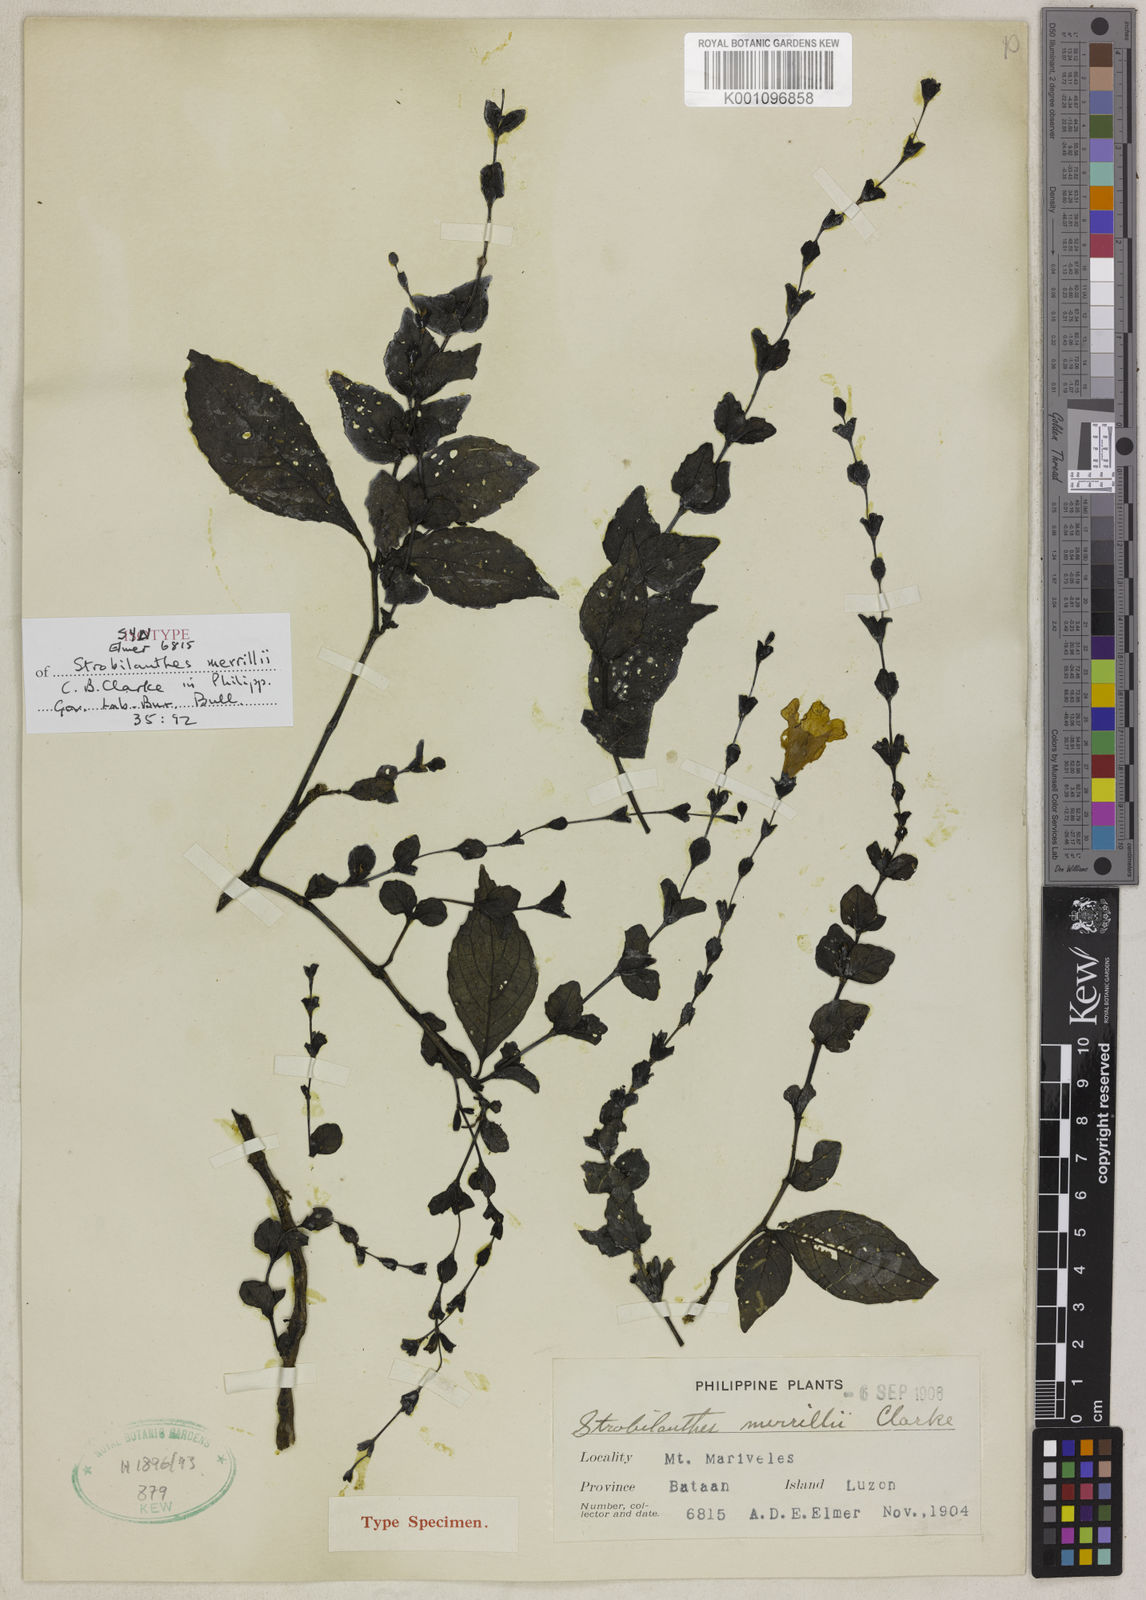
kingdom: Plantae
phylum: Tracheophyta
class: Magnoliopsida
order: Lamiales
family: Acanthaceae
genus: Strobilanthes
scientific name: Strobilanthes merrillii
